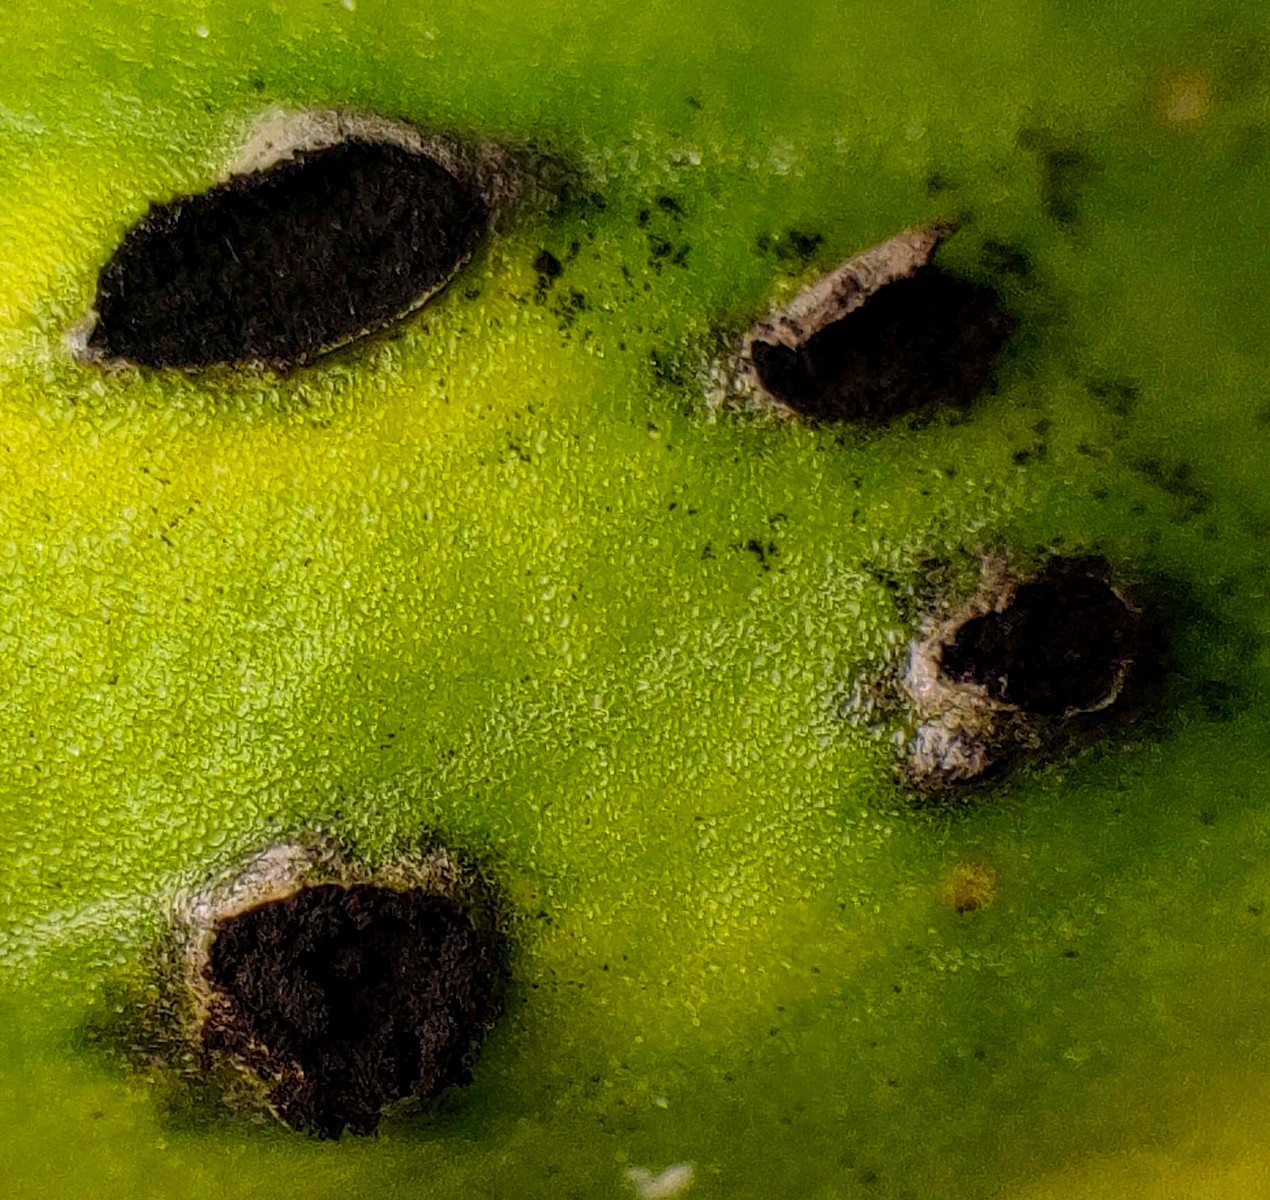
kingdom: Fungi
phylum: Basidiomycota
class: Ustilaginomycetes
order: Urocystidales
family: Urocystidaceae
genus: Urocystis
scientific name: Urocystis eranthidis
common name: erantis-brand
